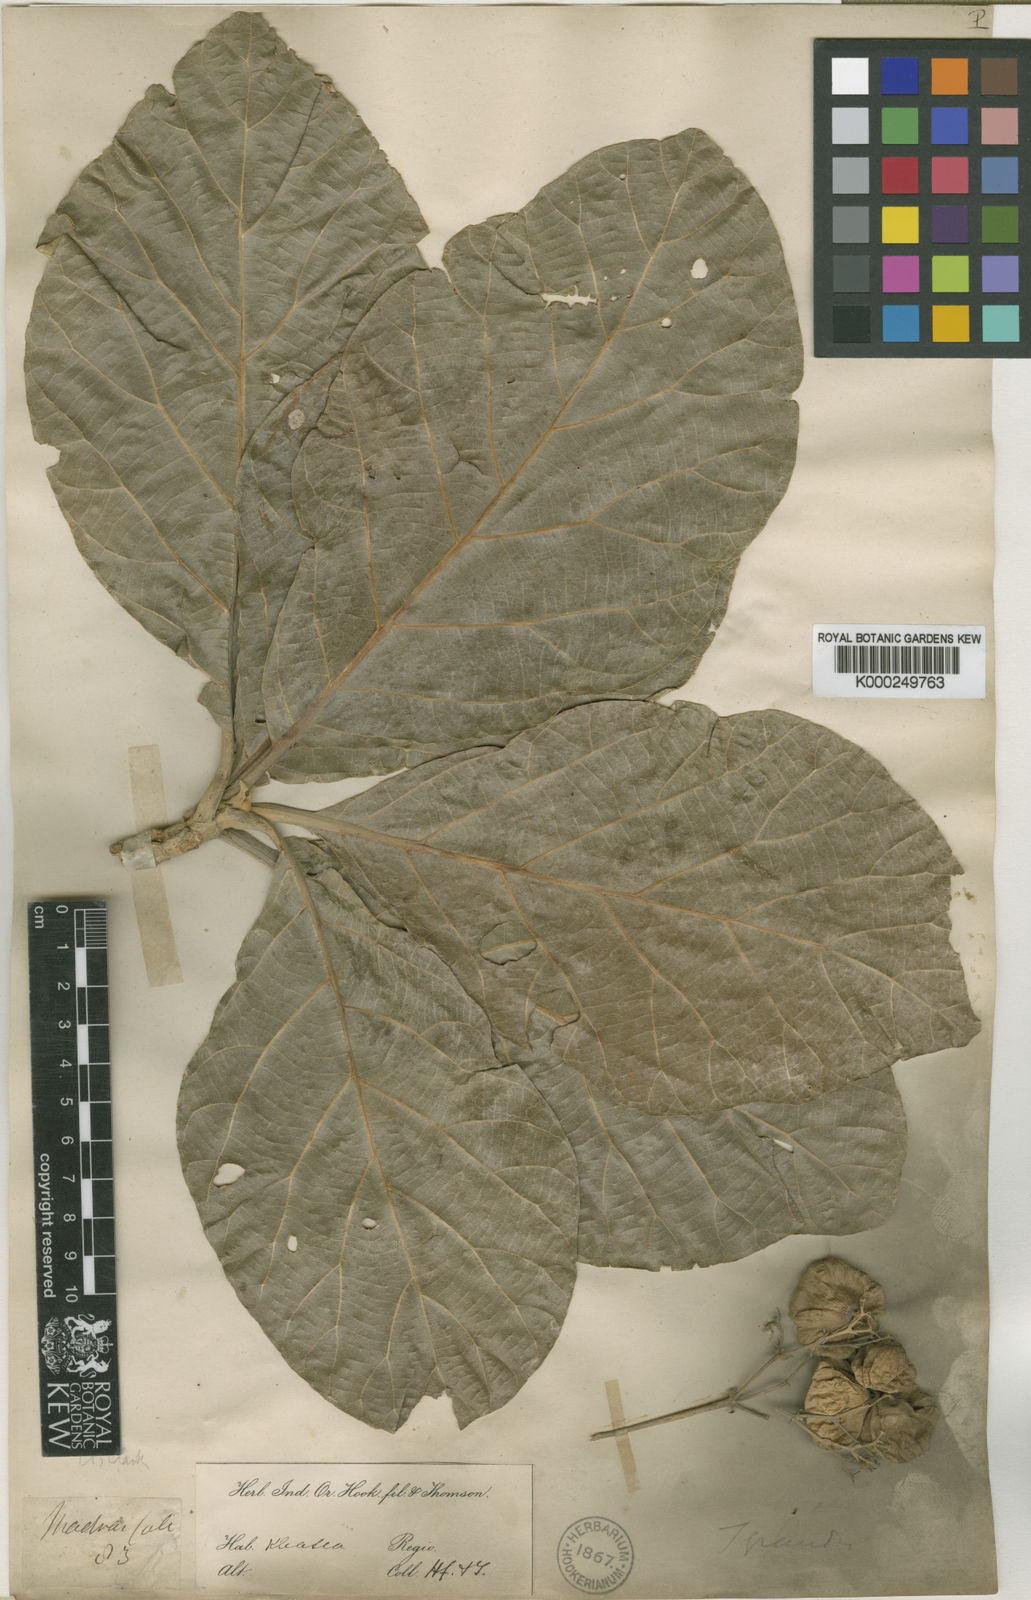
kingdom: Plantae
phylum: Tracheophyta
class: Magnoliopsida
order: Lamiales
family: Lamiaceae
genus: Tectona
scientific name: Tectona grandis
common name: Teak
